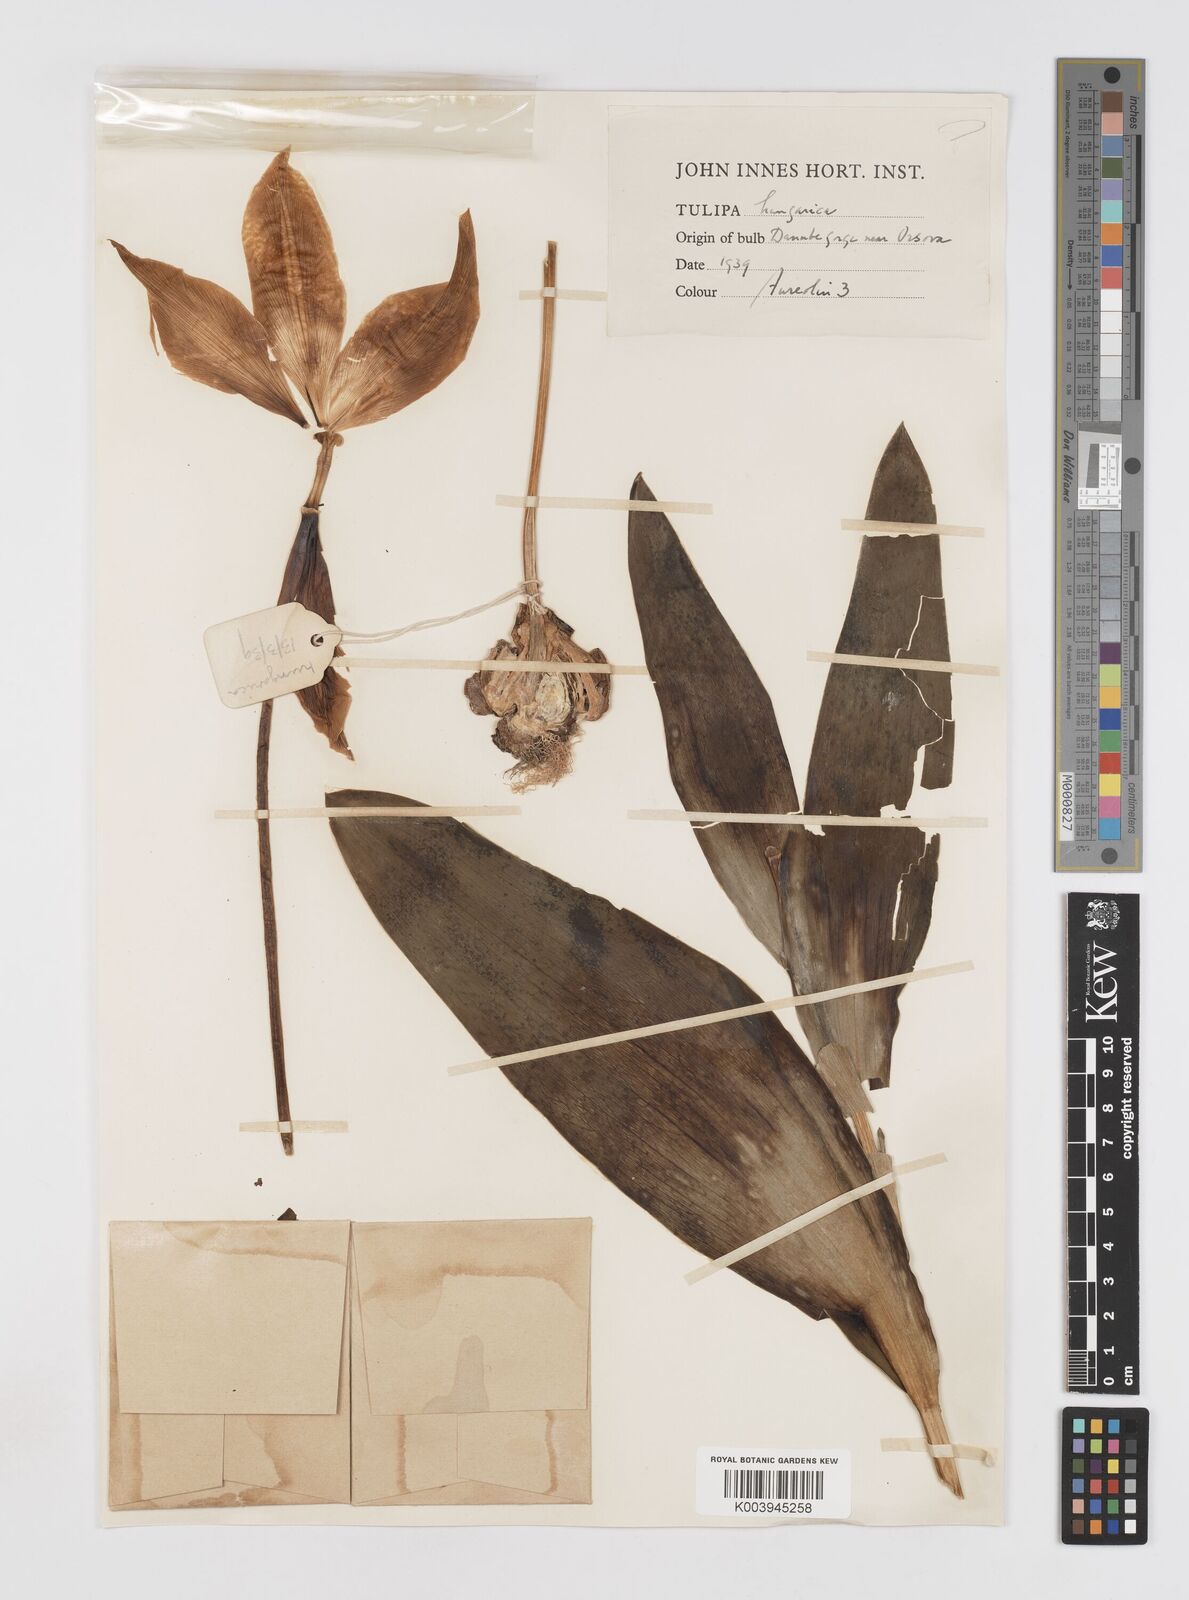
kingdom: Plantae
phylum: Tracheophyta
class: Liliopsida
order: Liliales
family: Liliaceae
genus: Tulipa
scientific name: Tulipa hungarica
